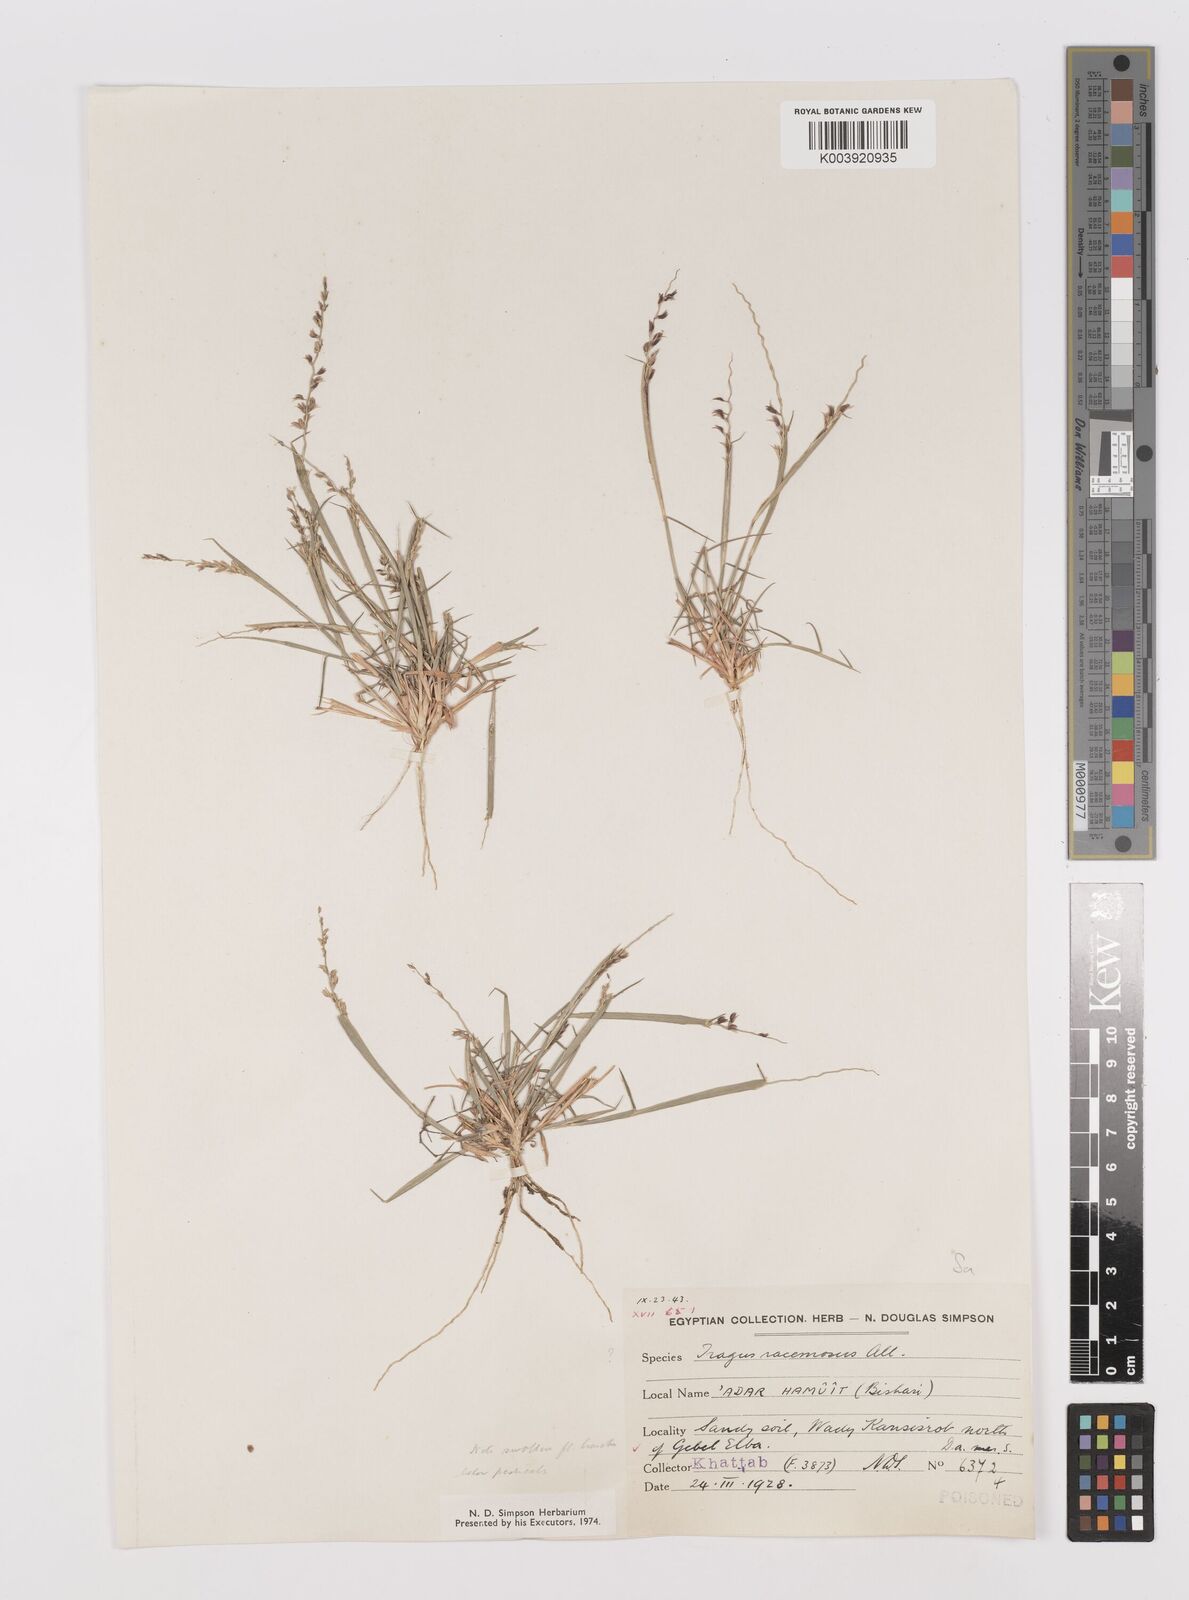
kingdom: Plantae
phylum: Tracheophyta
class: Liliopsida
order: Poales
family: Poaceae
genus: Leptothrium
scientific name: Leptothrium senegalense
